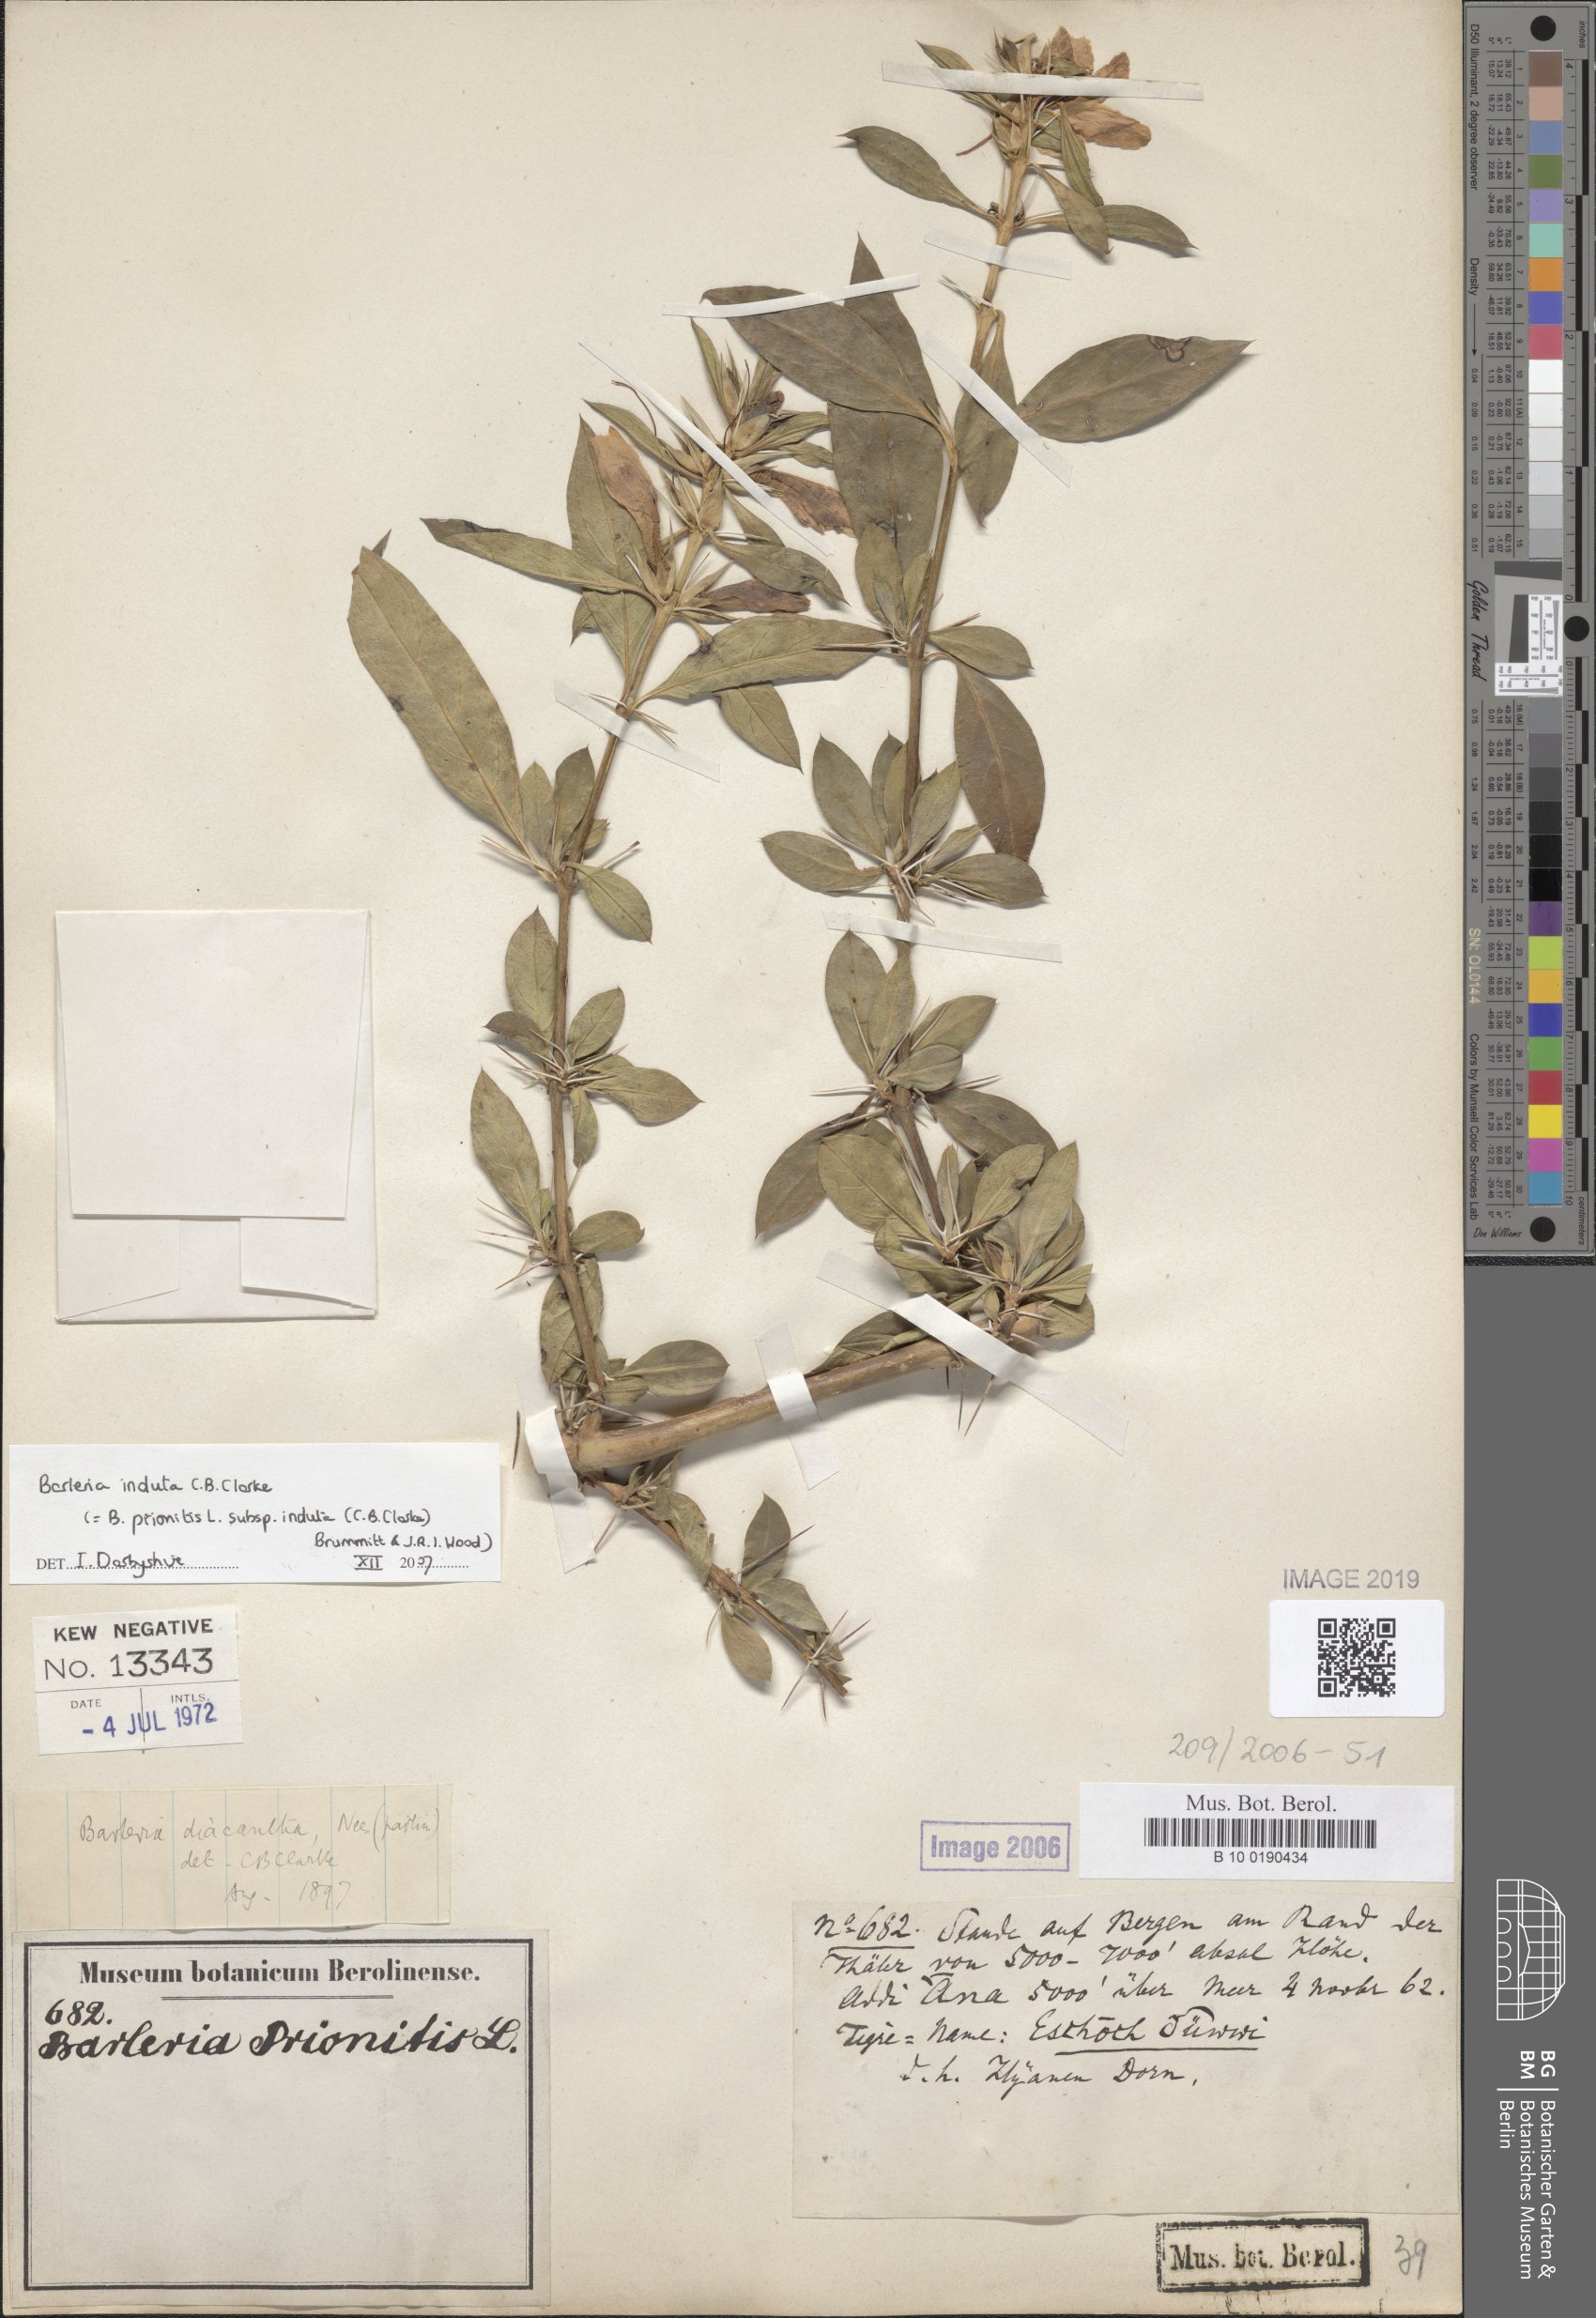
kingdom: Plantae
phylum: Tracheophyta
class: Magnoliopsida
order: Lamiales
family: Acanthaceae
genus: Barleria
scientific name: Barleria trispinosa
